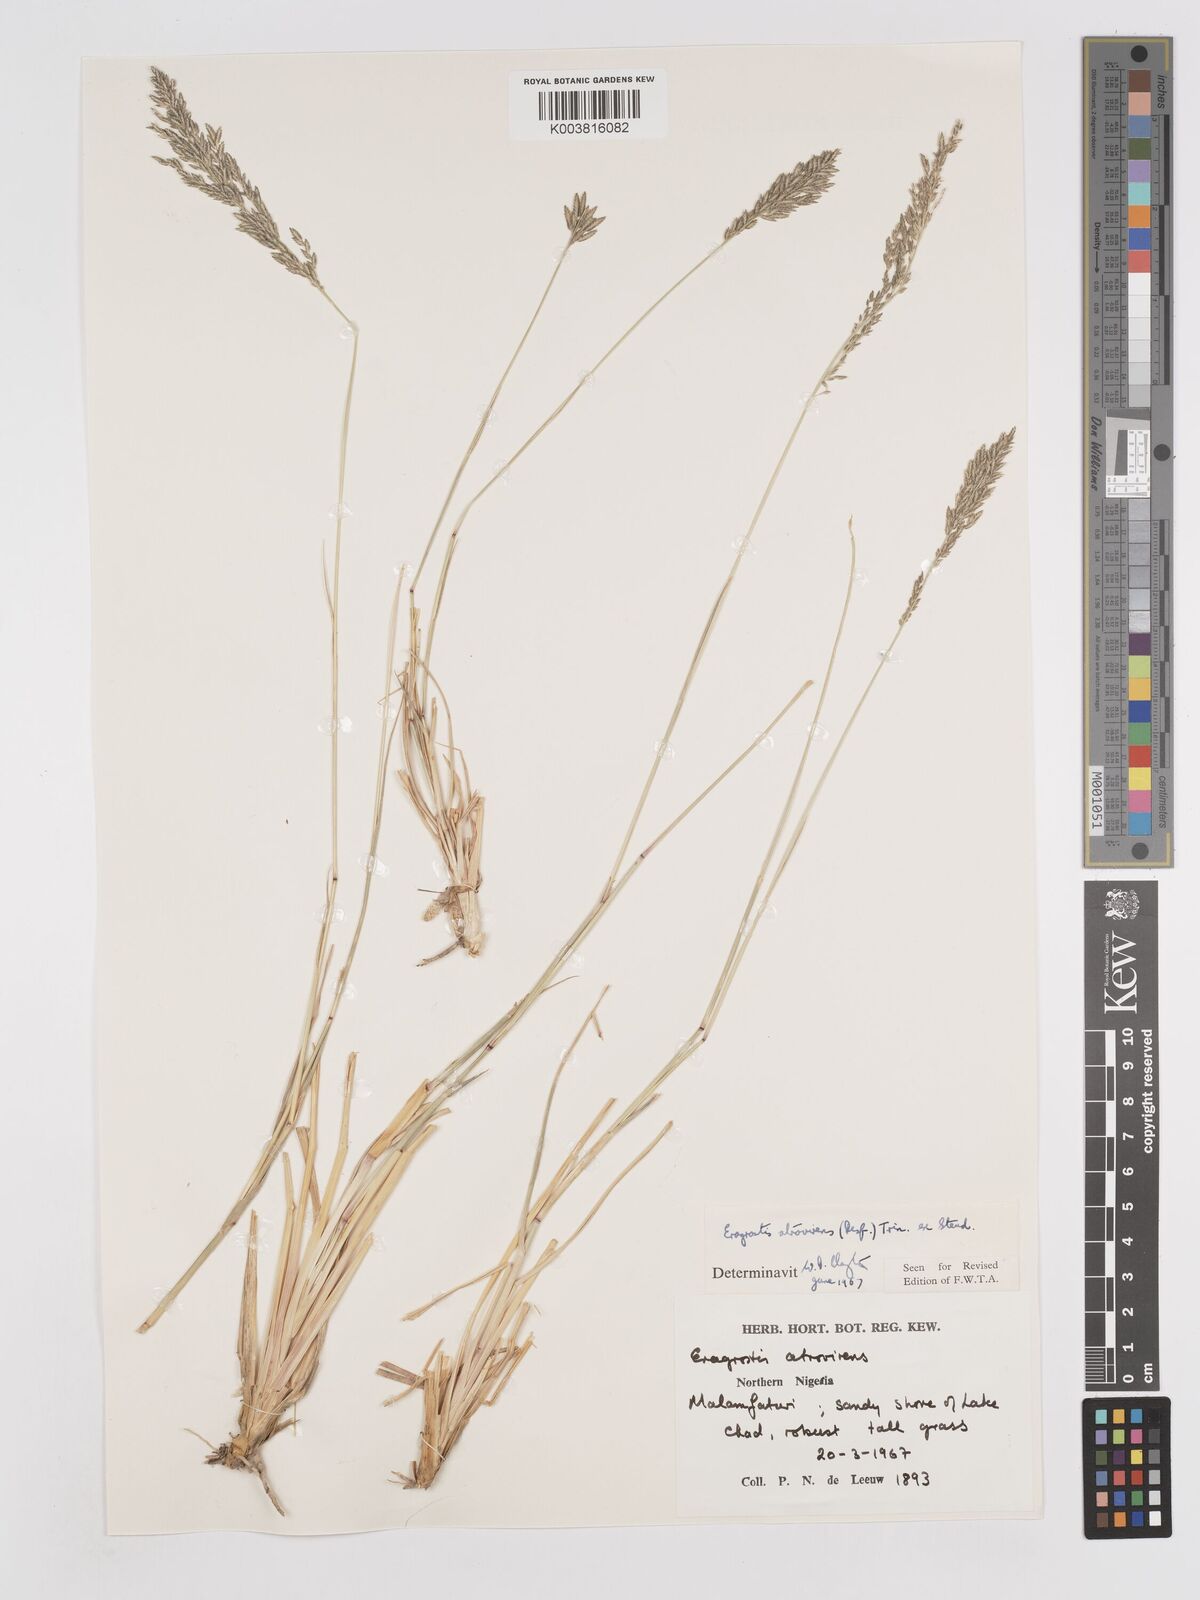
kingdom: Plantae
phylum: Tracheophyta
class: Liliopsida
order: Poales
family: Poaceae
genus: Eragrostis
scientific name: Eragrostis atrovirens
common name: Thalia lovegrass
